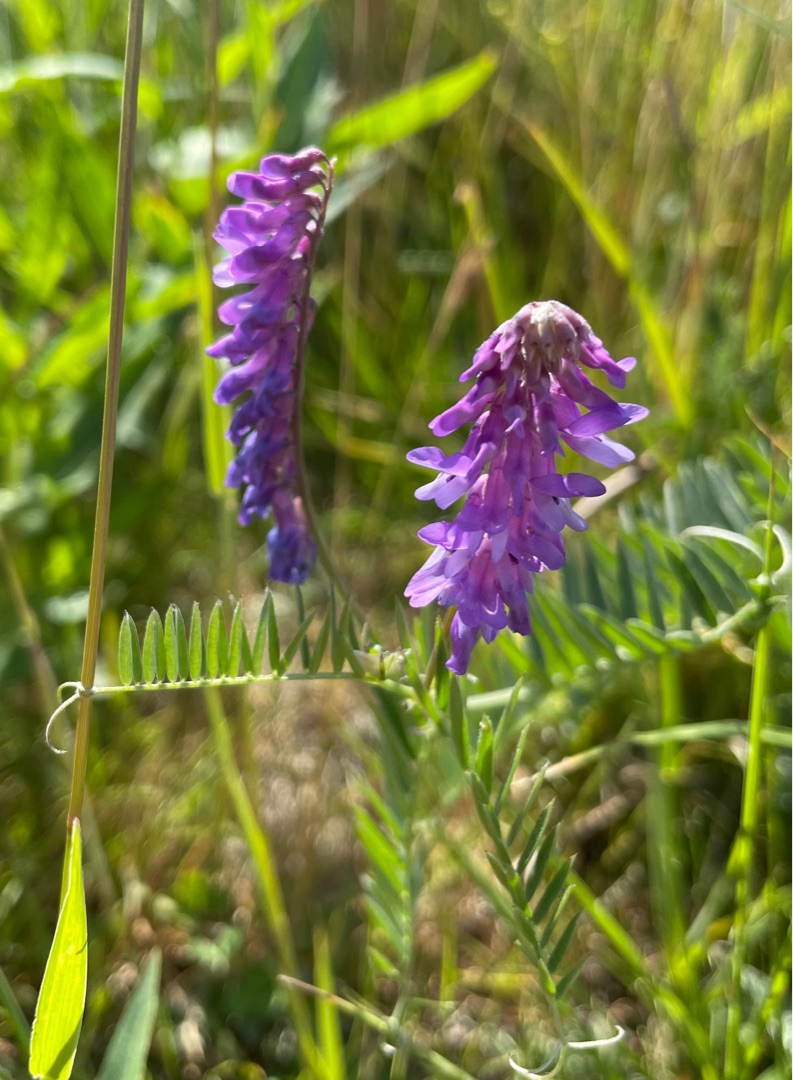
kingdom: Plantae
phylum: Tracheophyta
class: Magnoliopsida
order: Fabales
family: Fabaceae
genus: Vicia
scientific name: Vicia cracca
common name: Muse-vikke
